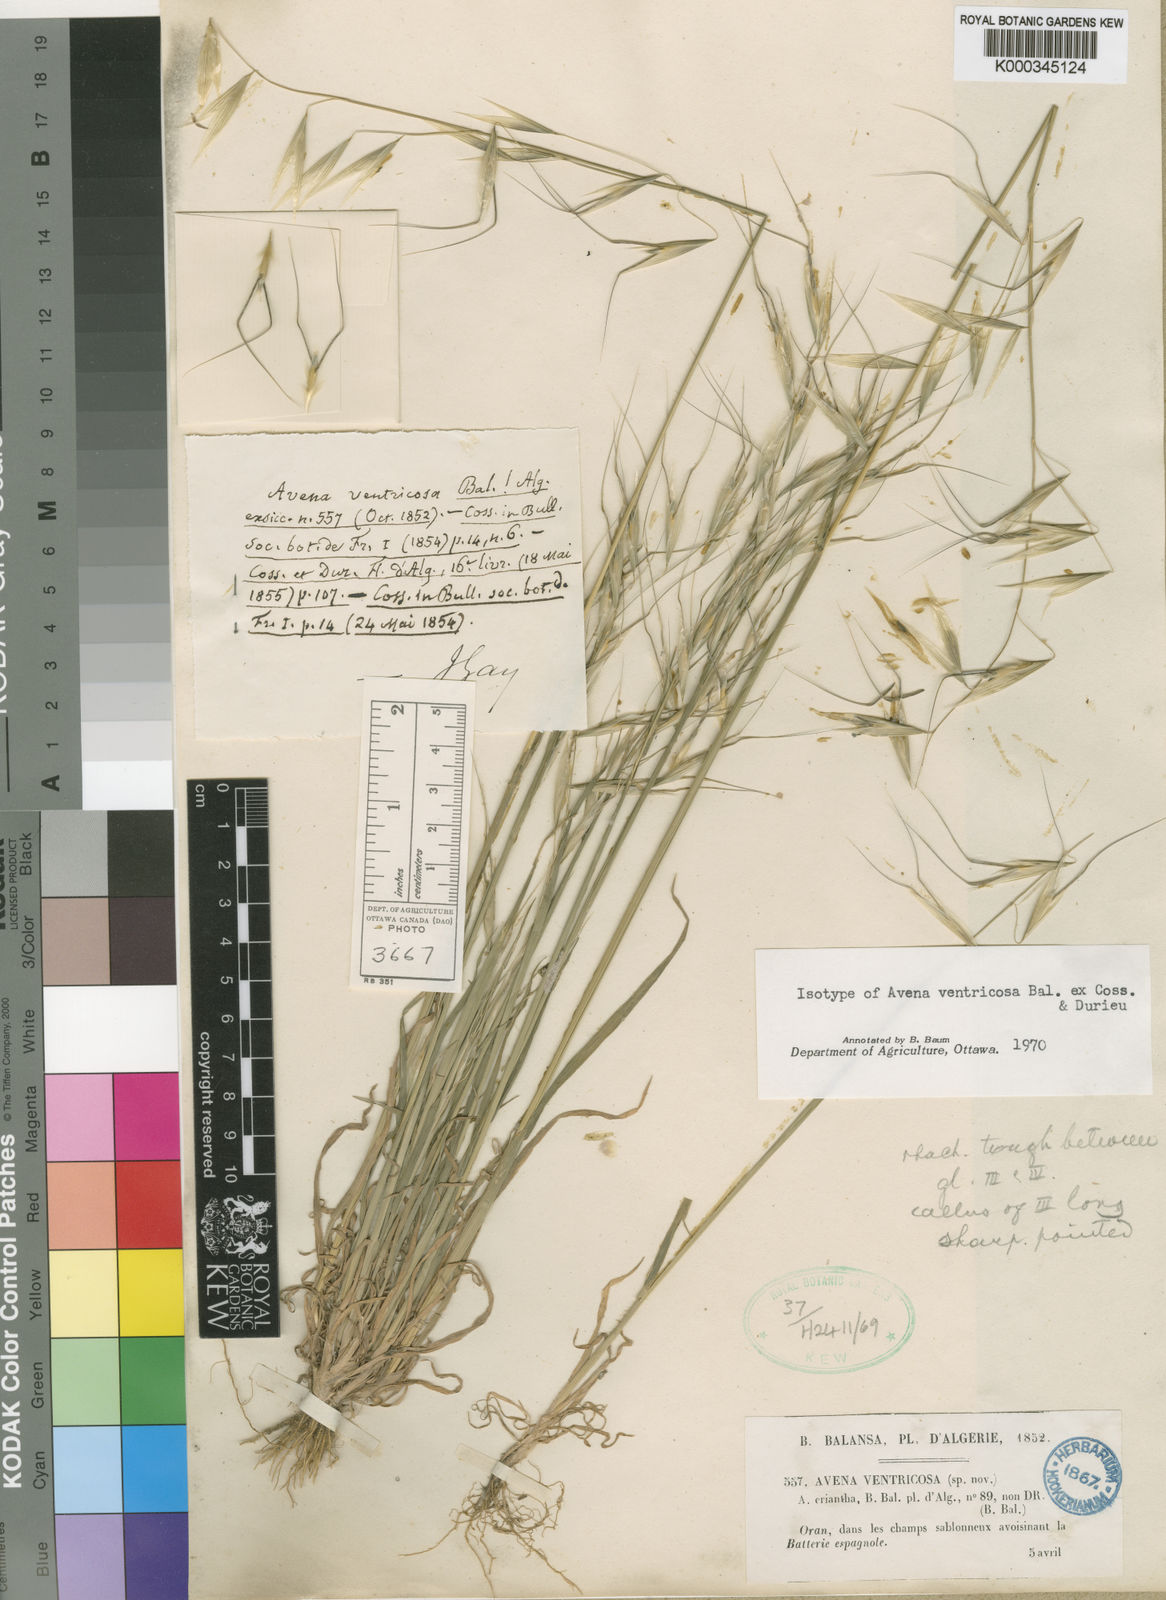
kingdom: Plantae
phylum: Tracheophyta
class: Liliopsida
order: Poales
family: Poaceae
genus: Avena
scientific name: Avena
